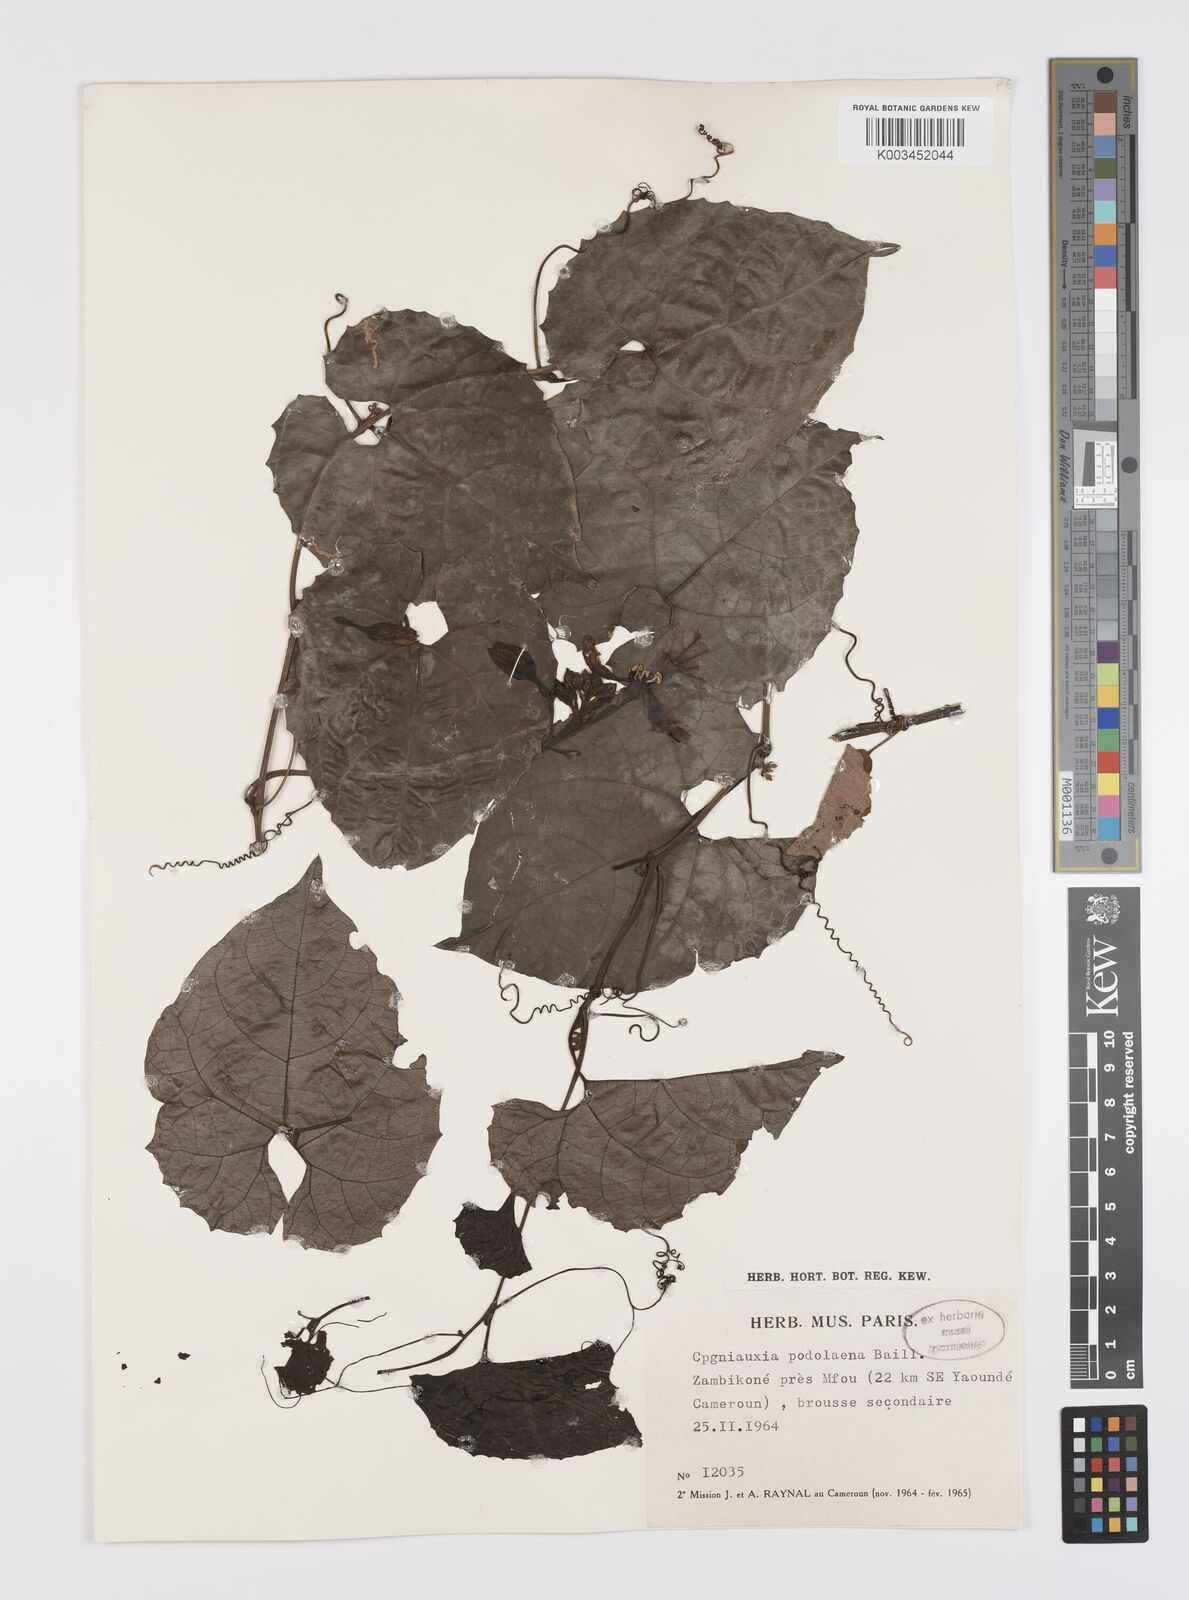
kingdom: Plantae
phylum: Tracheophyta
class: Magnoliopsida
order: Cucurbitales
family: Cucurbitaceae
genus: Cogniauxia
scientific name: Cogniauxia podolaena
